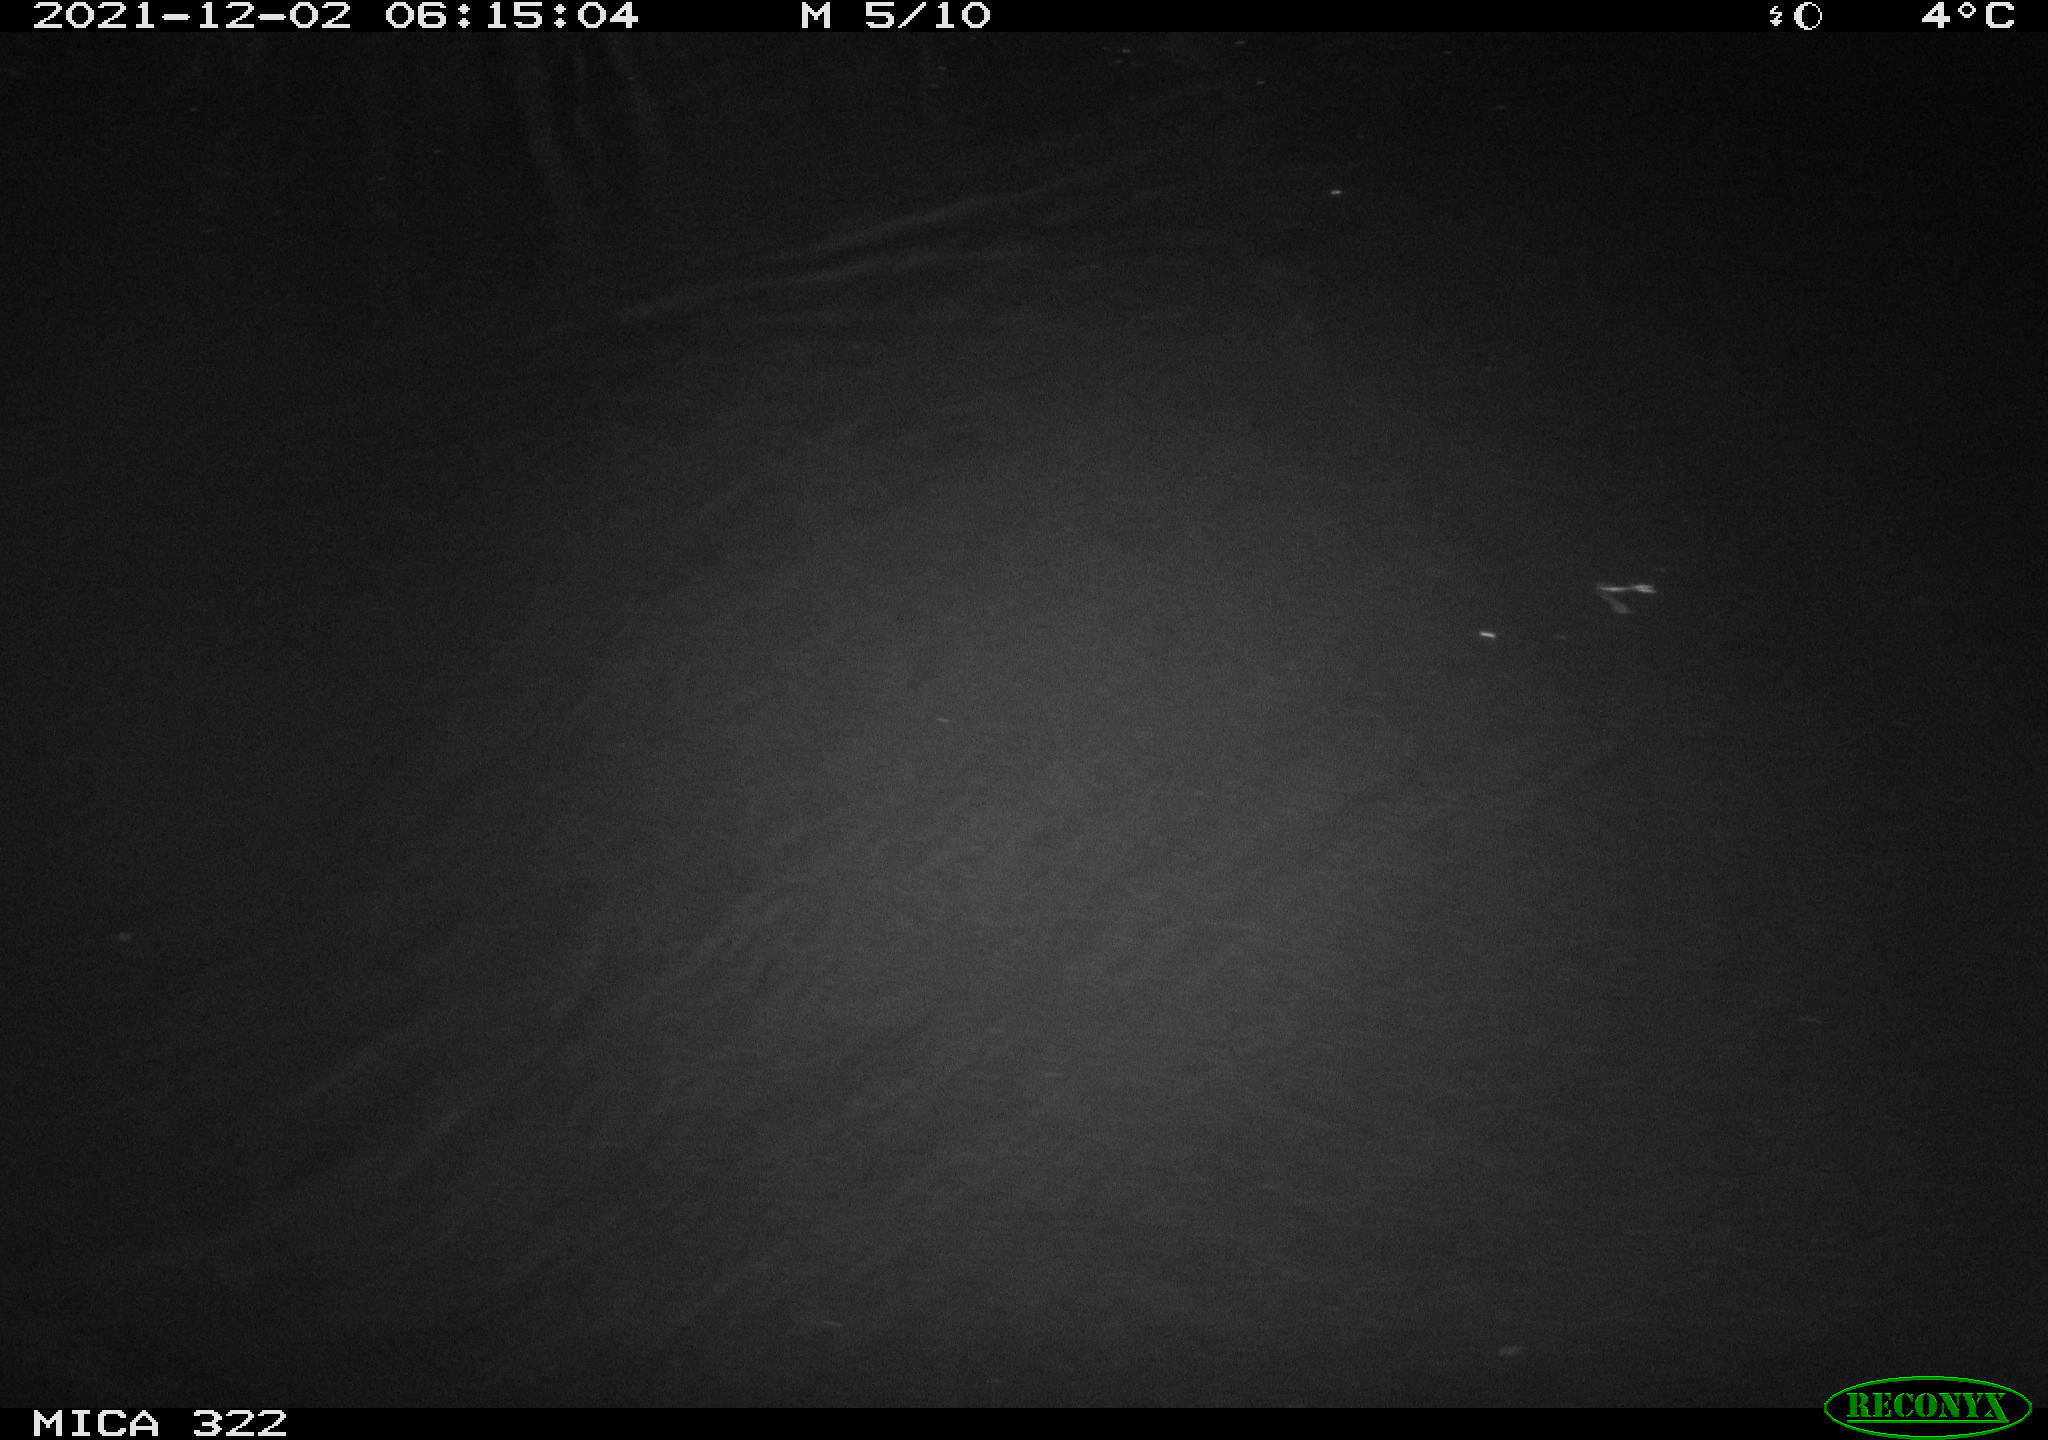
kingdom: Animalia
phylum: Chordata
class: Mammalia
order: Rodentia
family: Muridae
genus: Rattus
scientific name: Rattus norvegicus
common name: Brown rat
